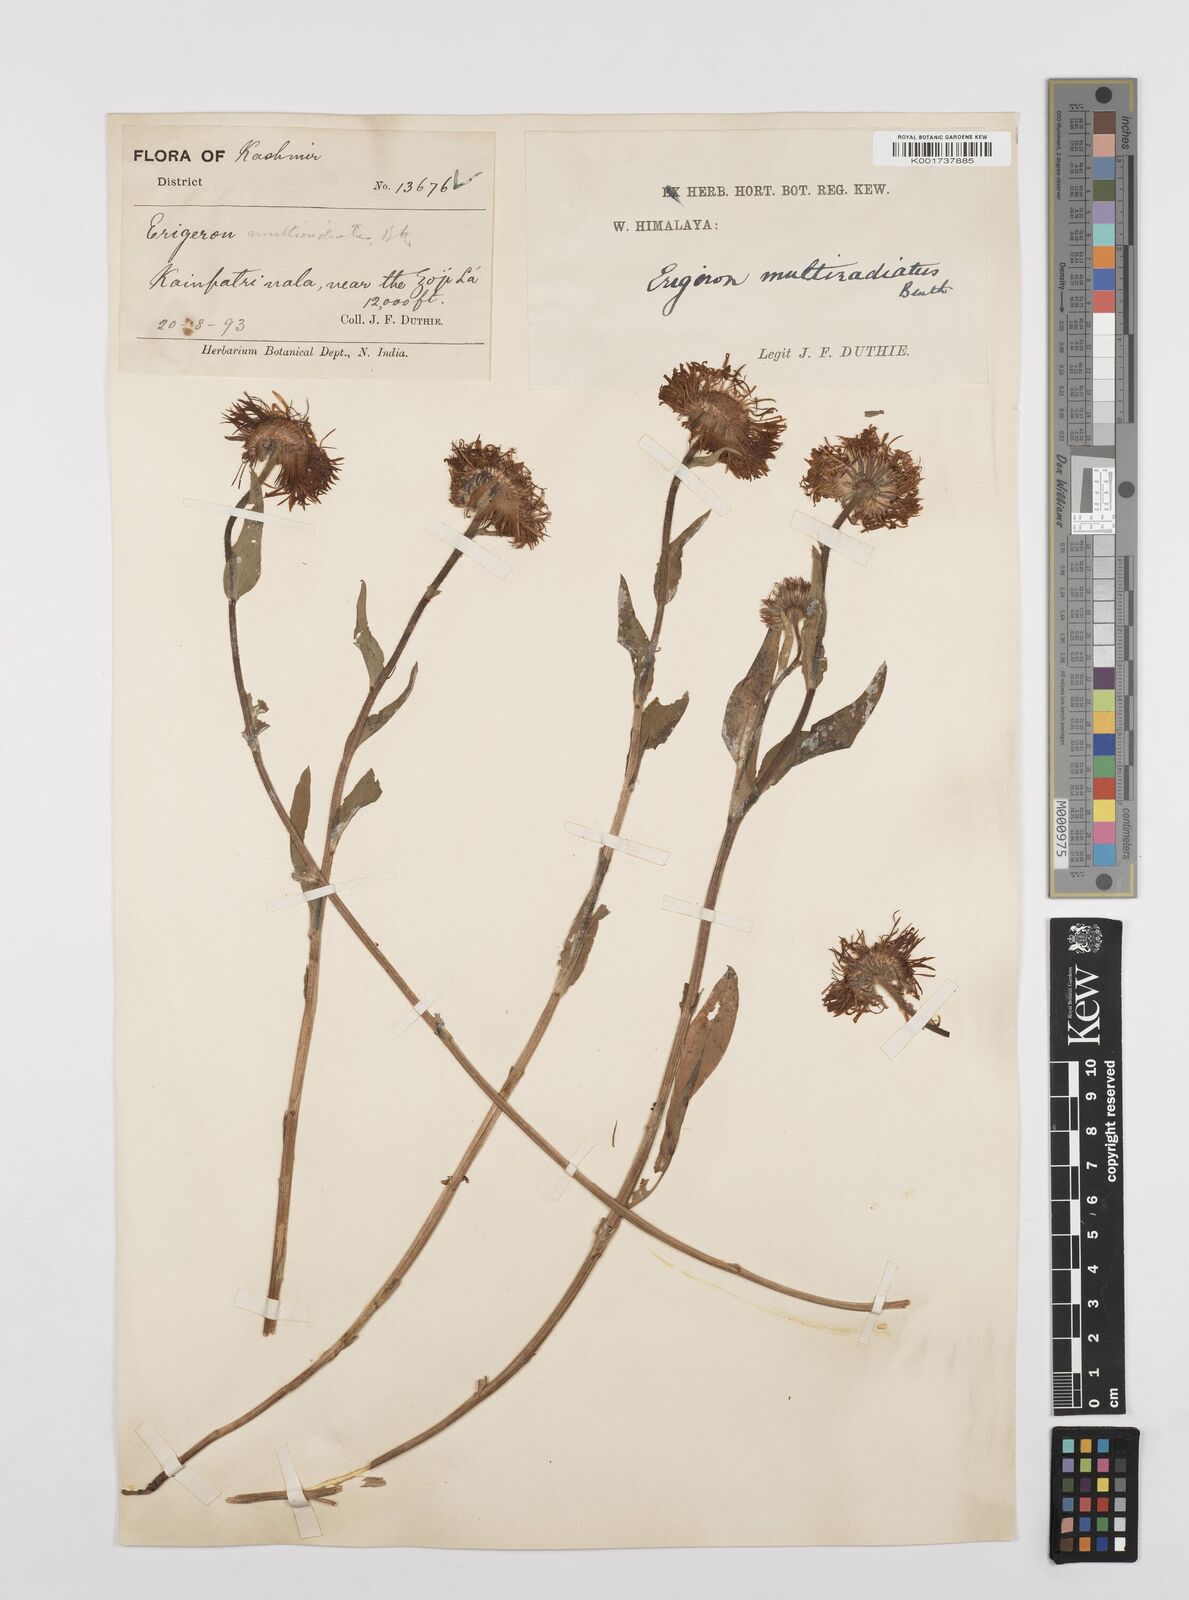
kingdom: Plantae
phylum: Tracheophyta
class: Magnoliopsida
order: Asterales
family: Asteraceae
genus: Erigeron
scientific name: Erigeron multiradiatus
